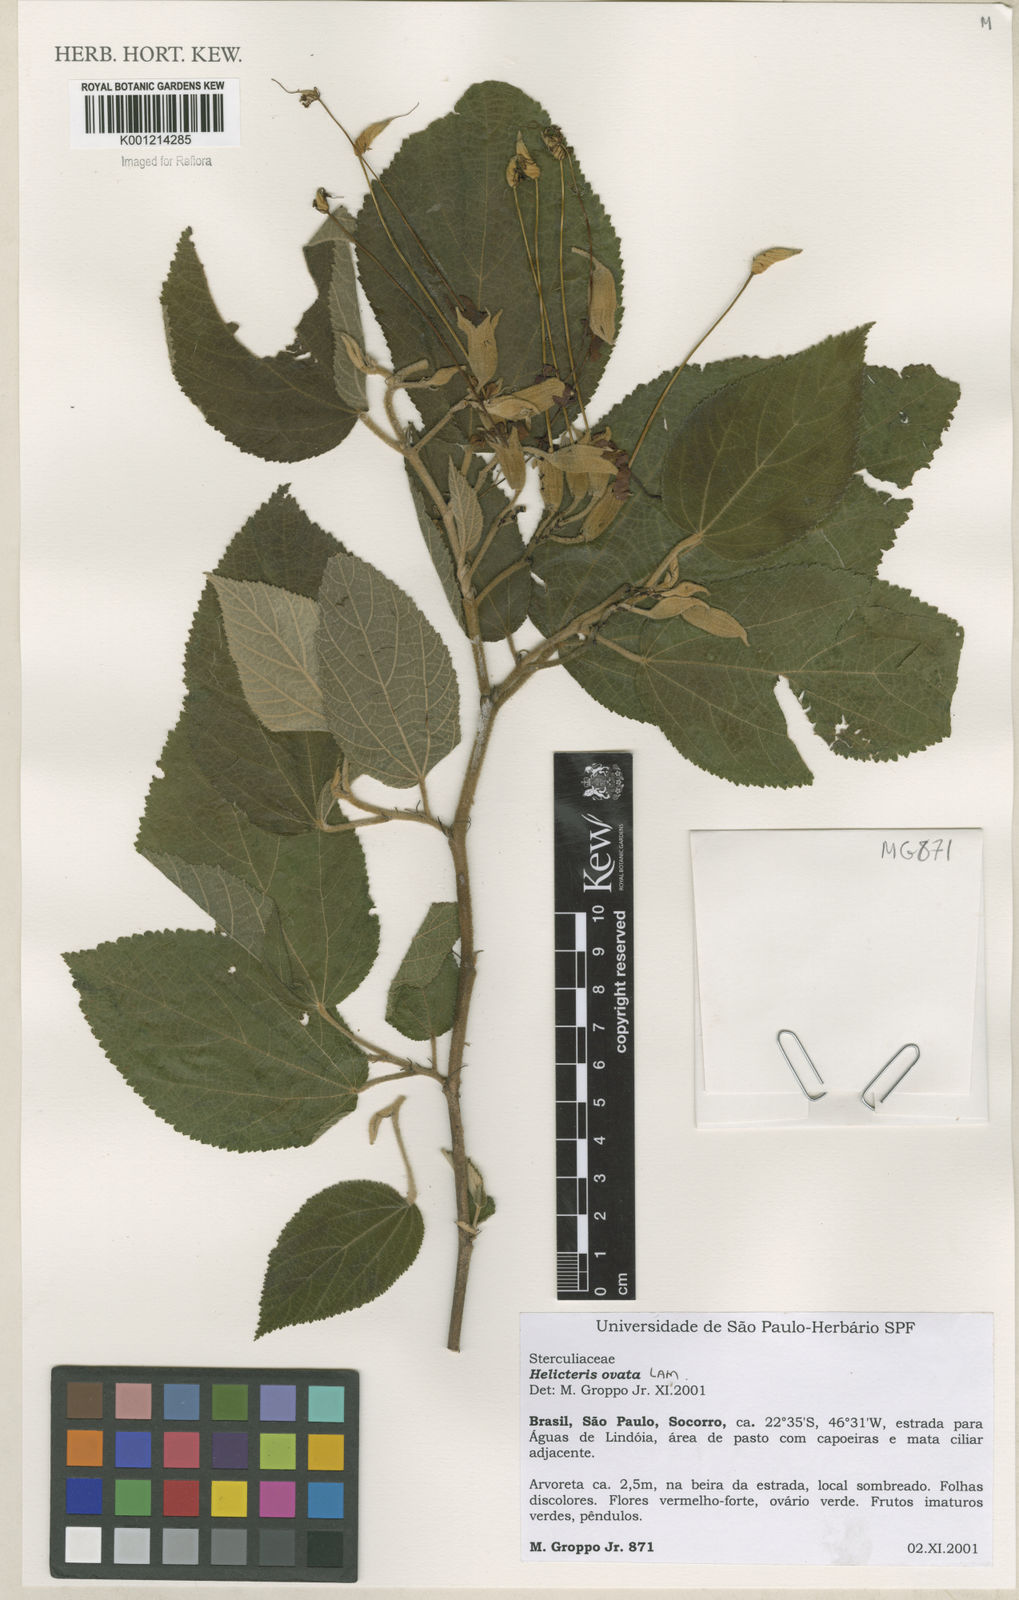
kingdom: Plantae
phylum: Tracheophyta
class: Magnoliopsida
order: Malvales
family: Malvaceae
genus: Helicteres
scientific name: Helicteres ovata
